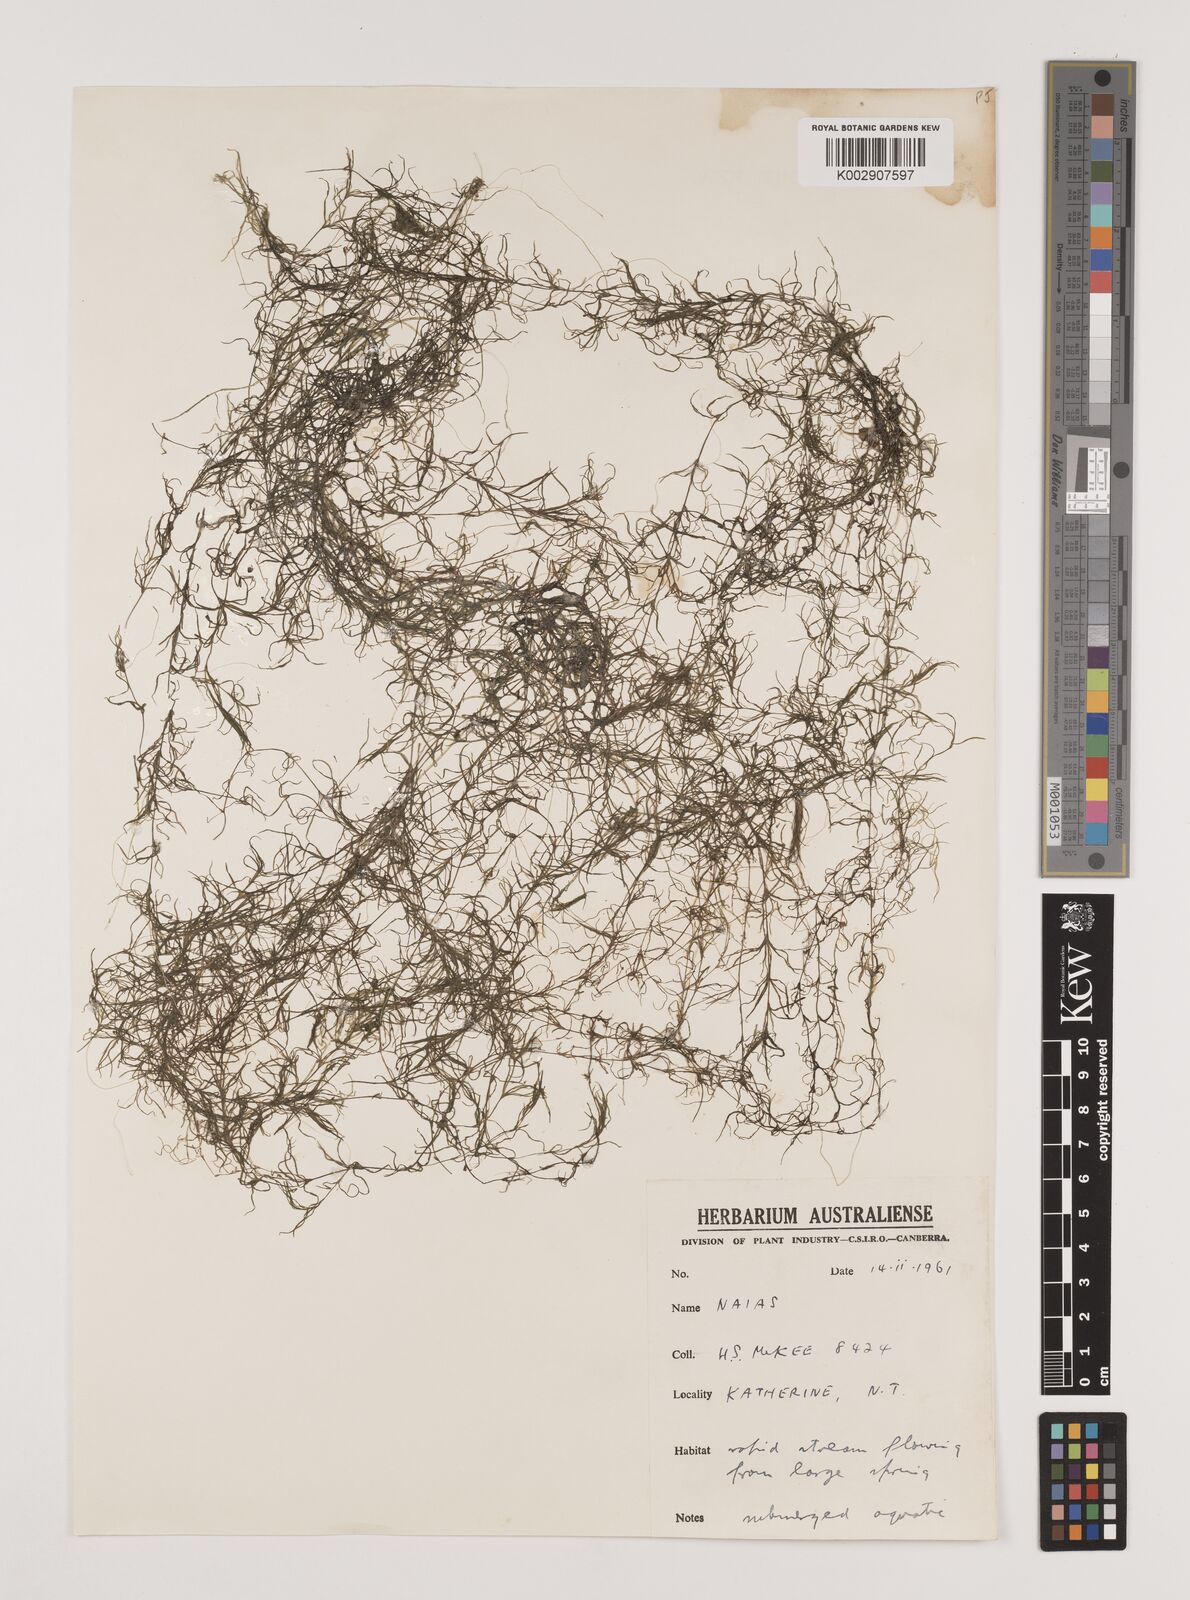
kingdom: Plantae
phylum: Tracheophyta
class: Liliopsida
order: Alismatales
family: Hydrocharitaceae
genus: Najas
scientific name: Najas
